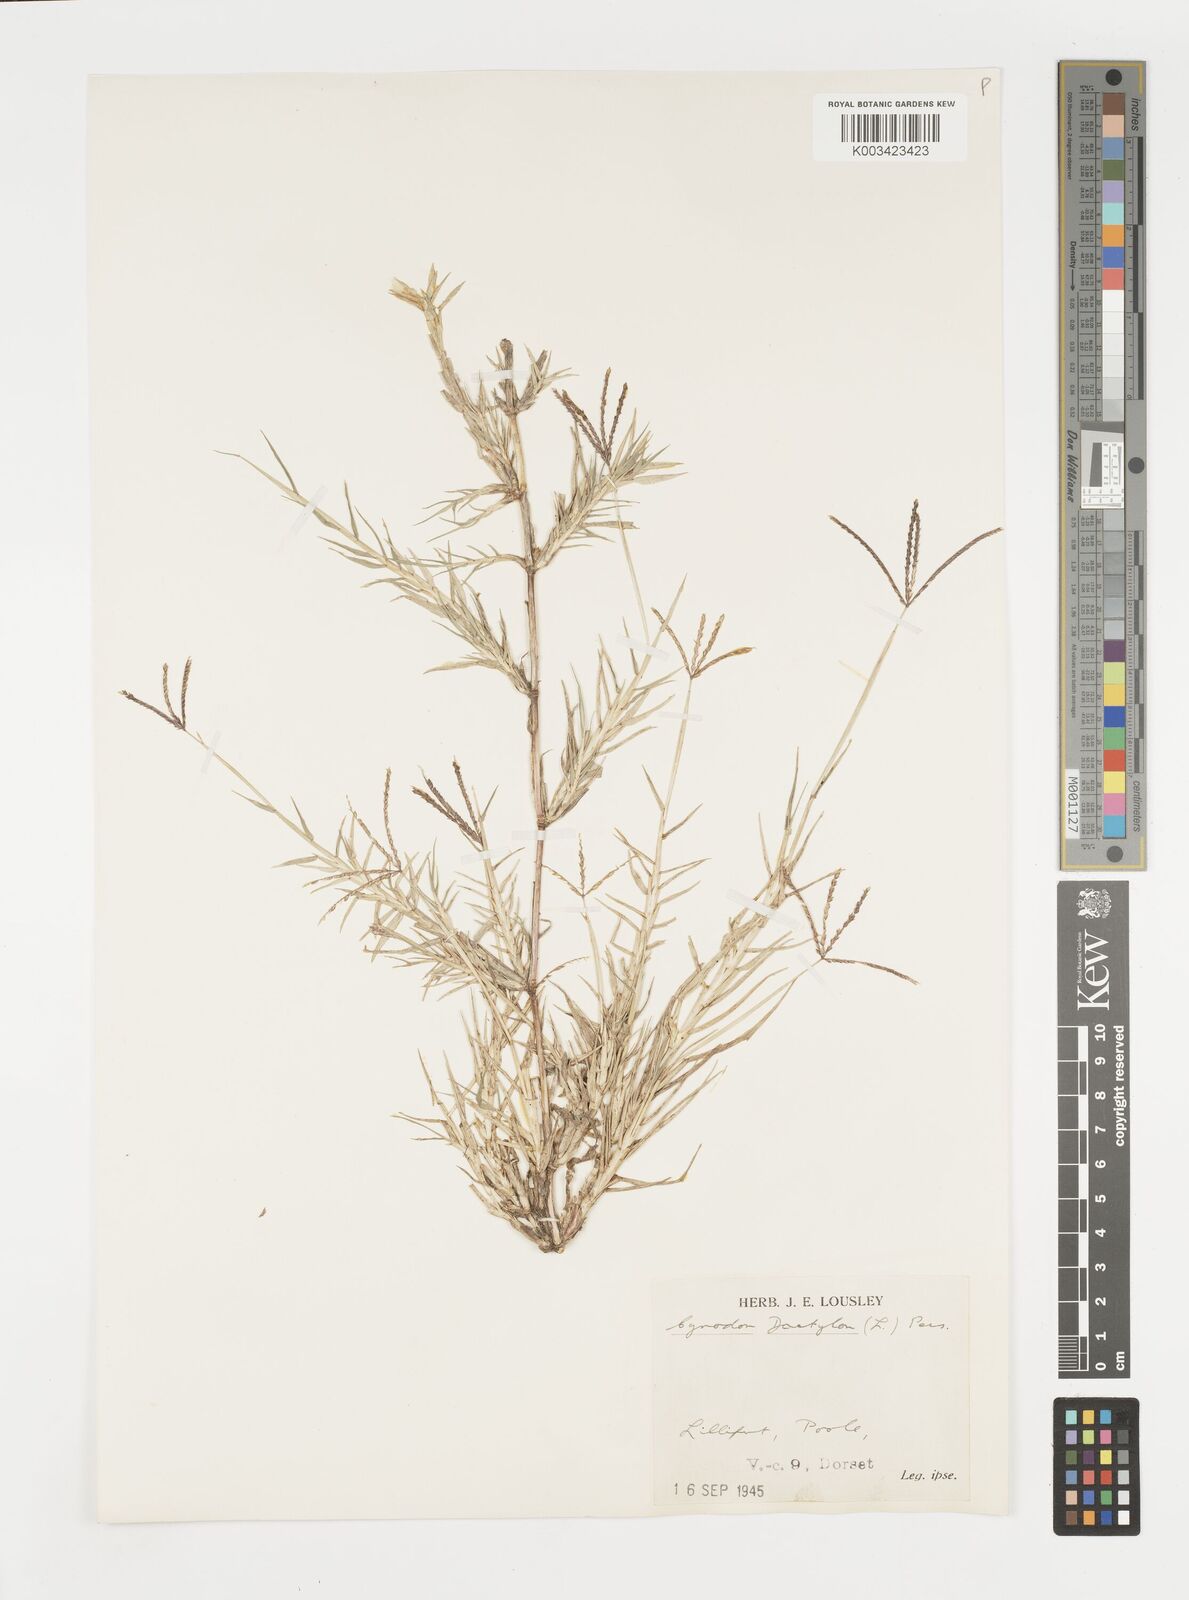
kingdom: Plantae
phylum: Tracheophyta
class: Liliopsida
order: Poales
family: Poaceae
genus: Cynodon
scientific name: Cynodon dactylon
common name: Bermuda grass
